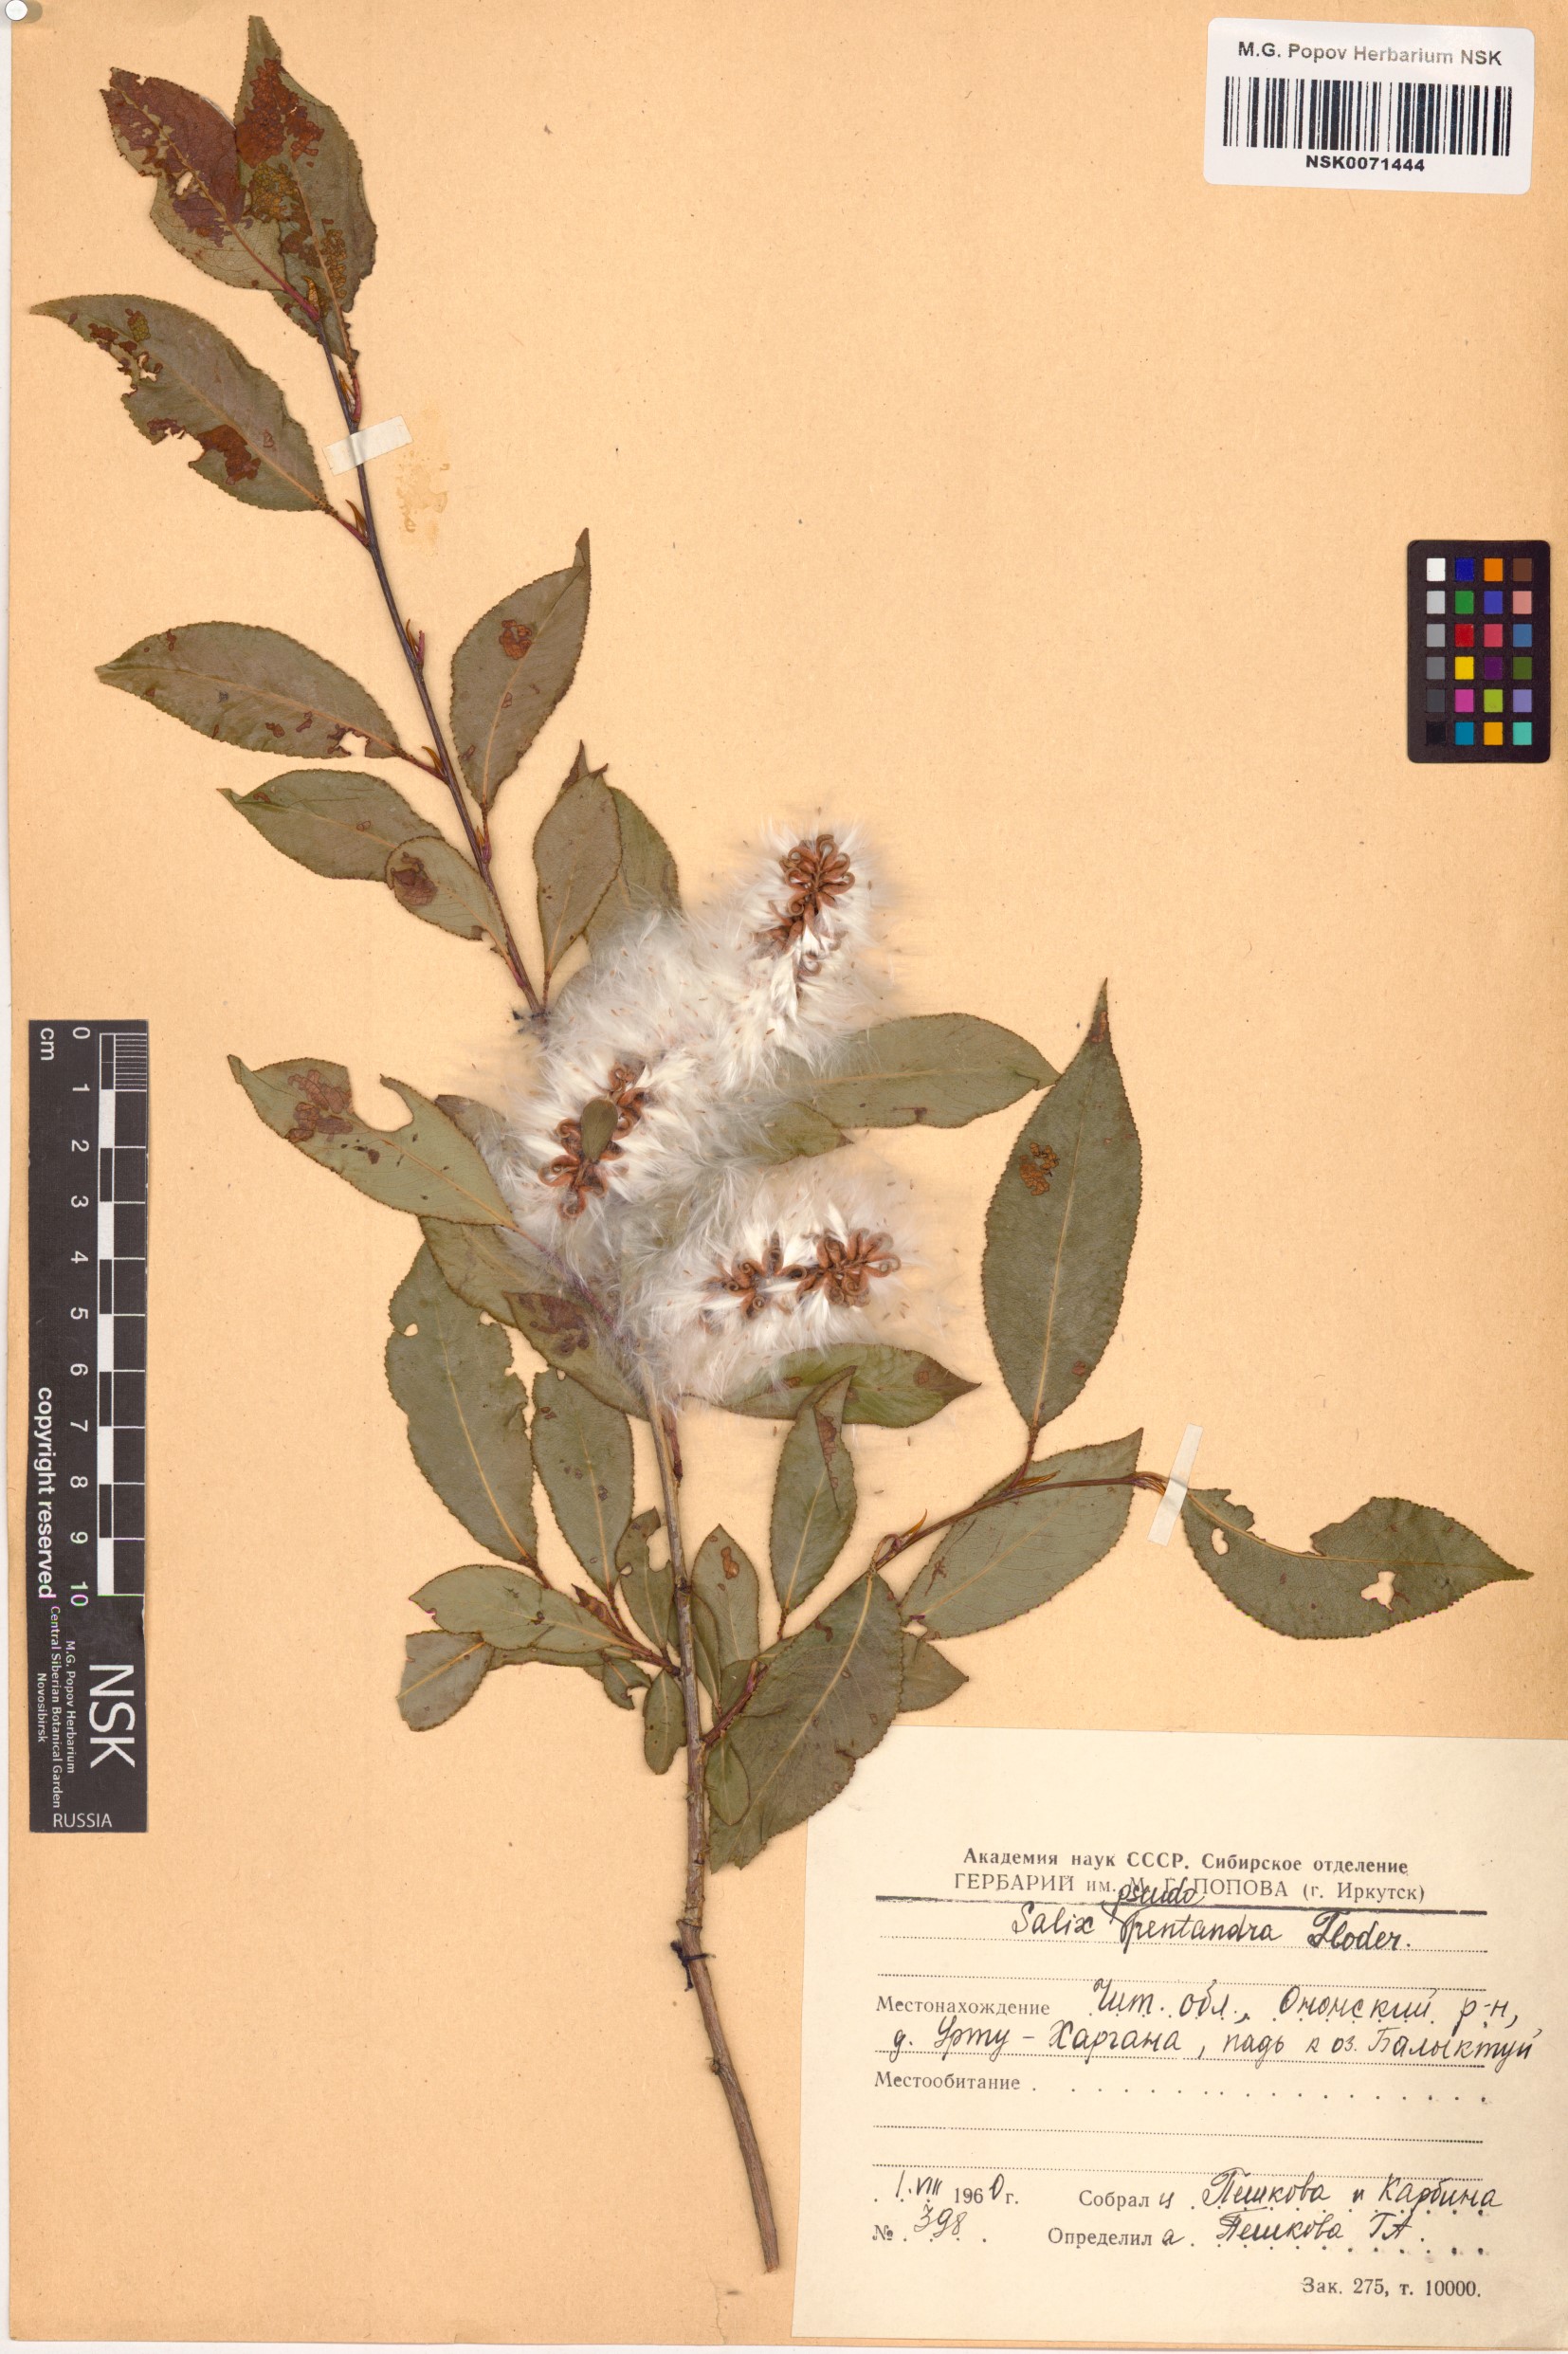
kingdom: Plantae
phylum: Tracheophyta
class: Magnoliopsida
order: Malpighiales
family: Salicaceae
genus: Salix
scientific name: Salix pseudopentandra
